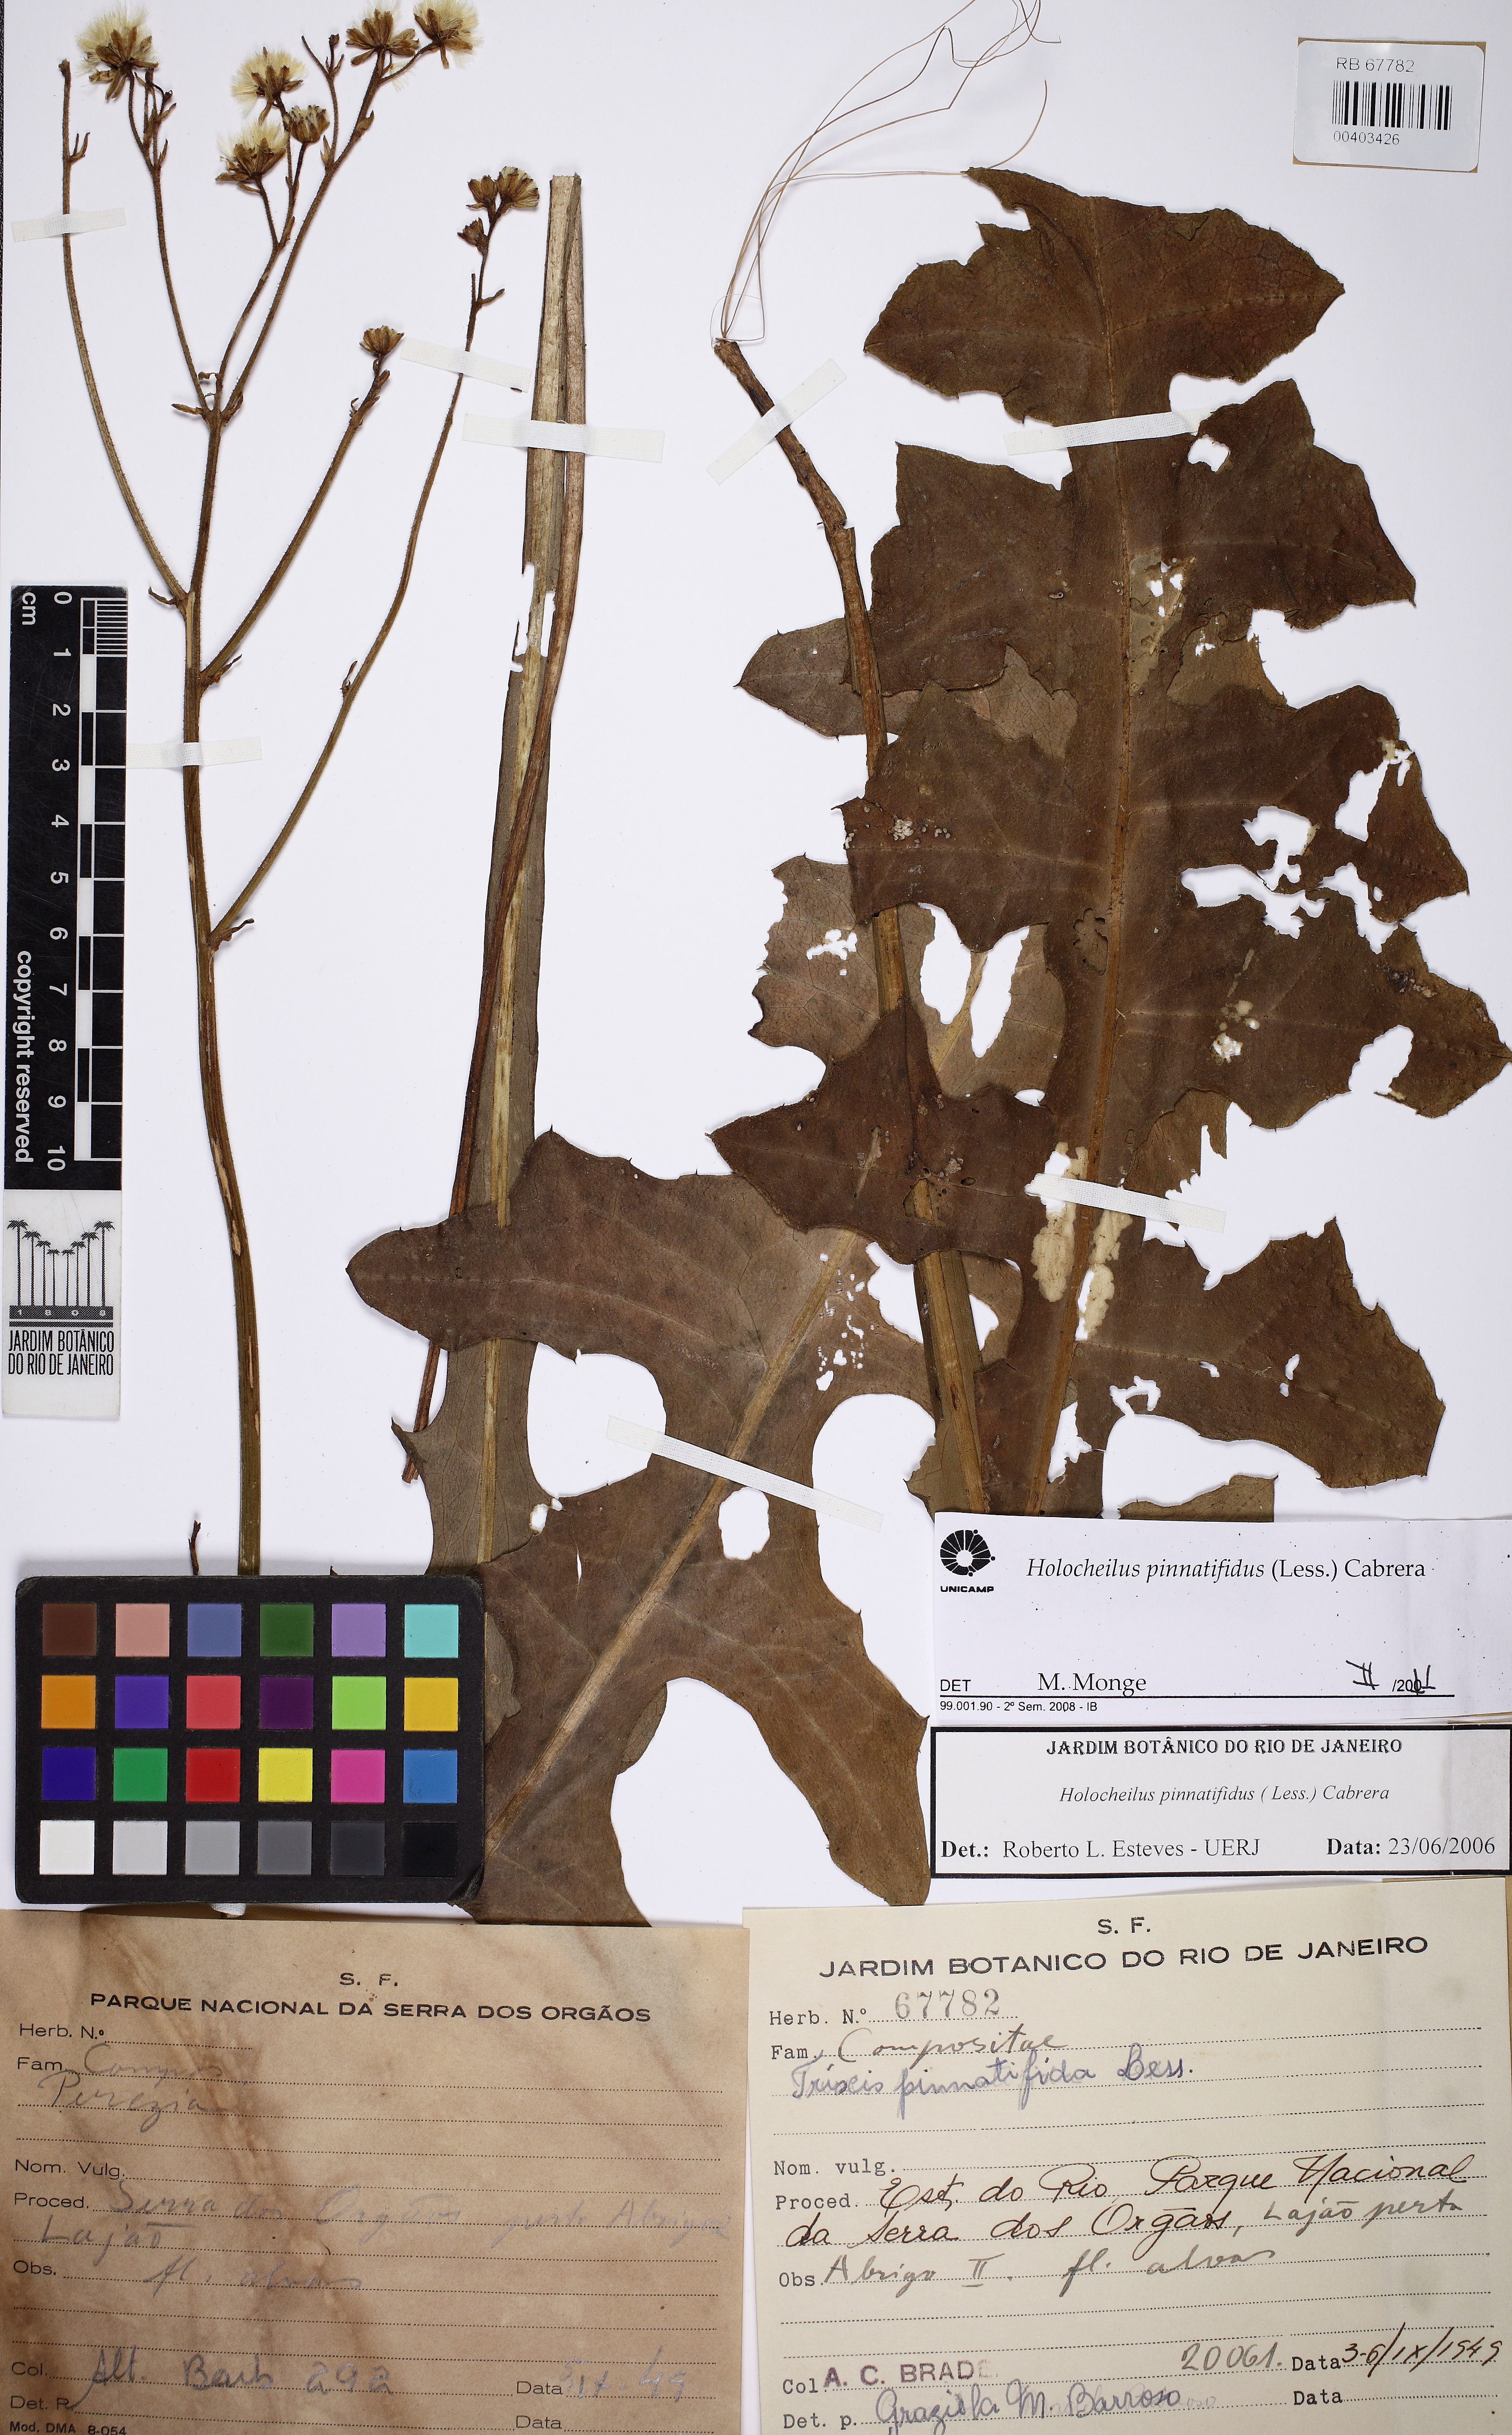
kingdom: Plantae
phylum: Tracheophyta
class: Magnoliopsida
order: Asterales
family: Asteraceae
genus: Holocheilus
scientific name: Holocheilus pinnatifidus
